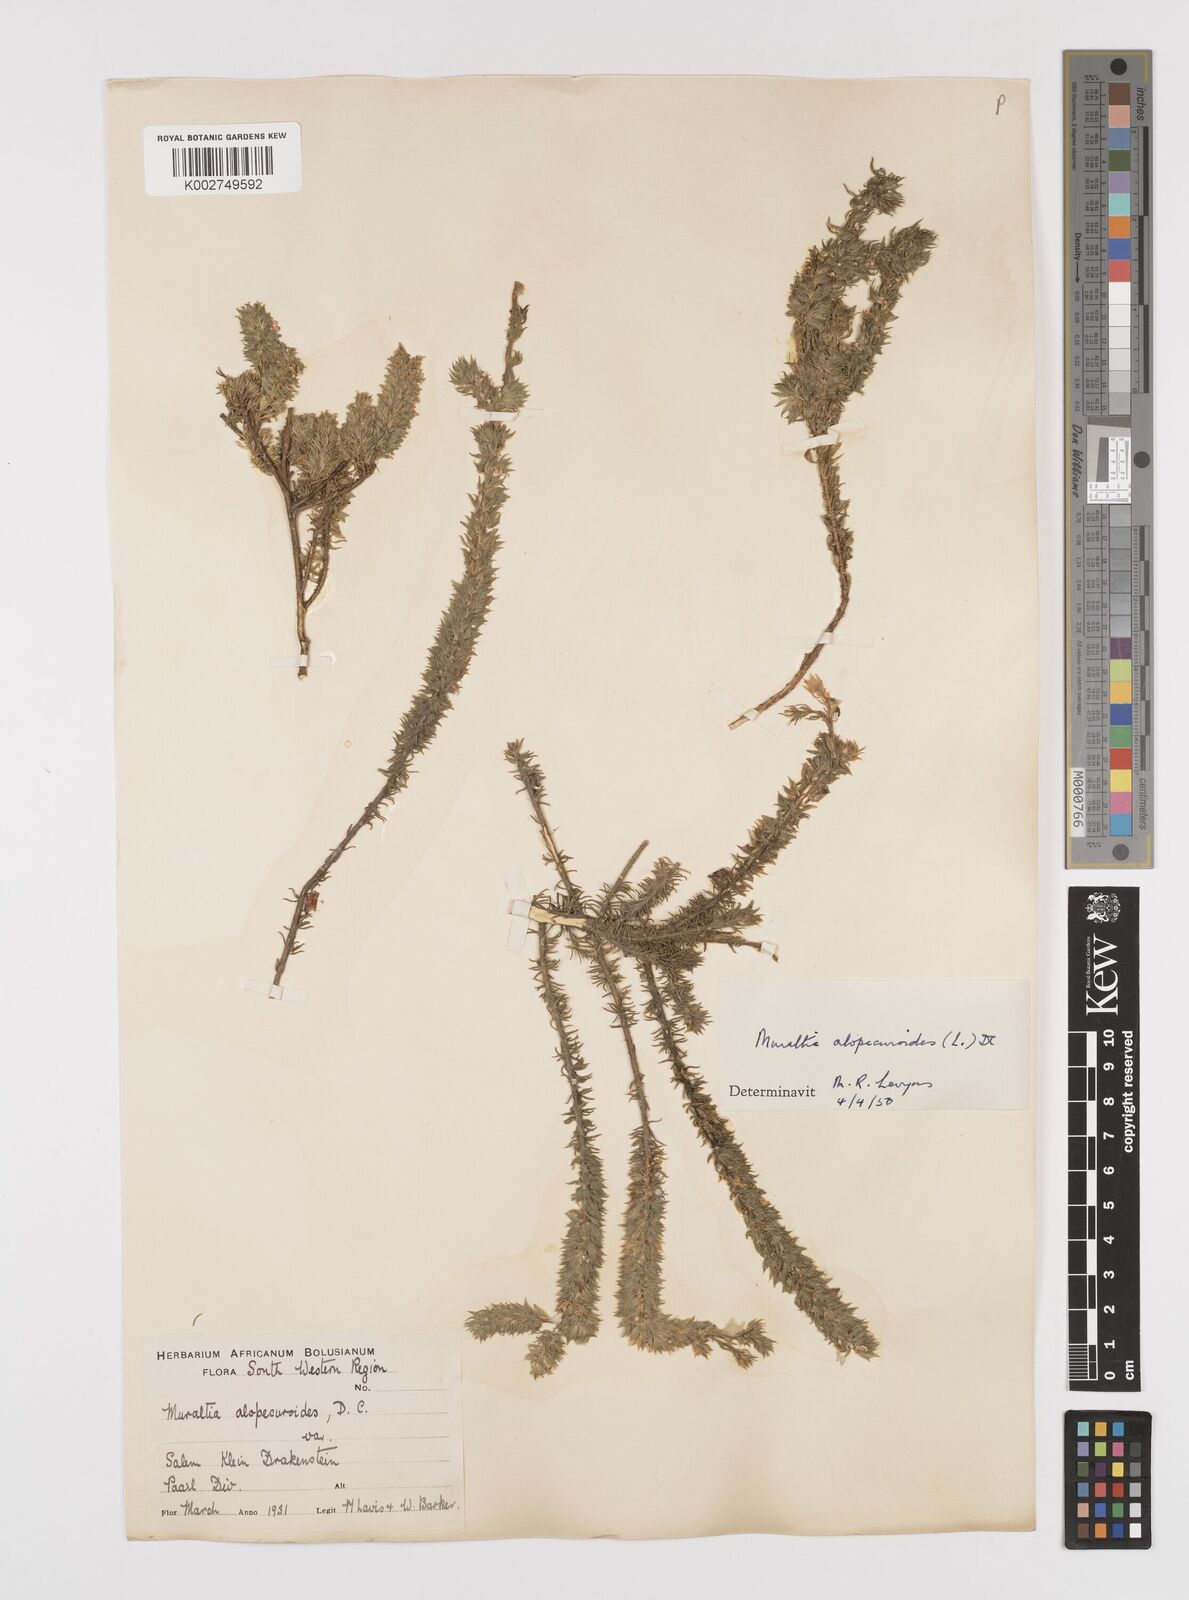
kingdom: Plantae
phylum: Tracheophyta
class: Magnoliopsida
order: Fabales
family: Polygalaceae
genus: Muraltia
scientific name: Muraltia alopecuroides
